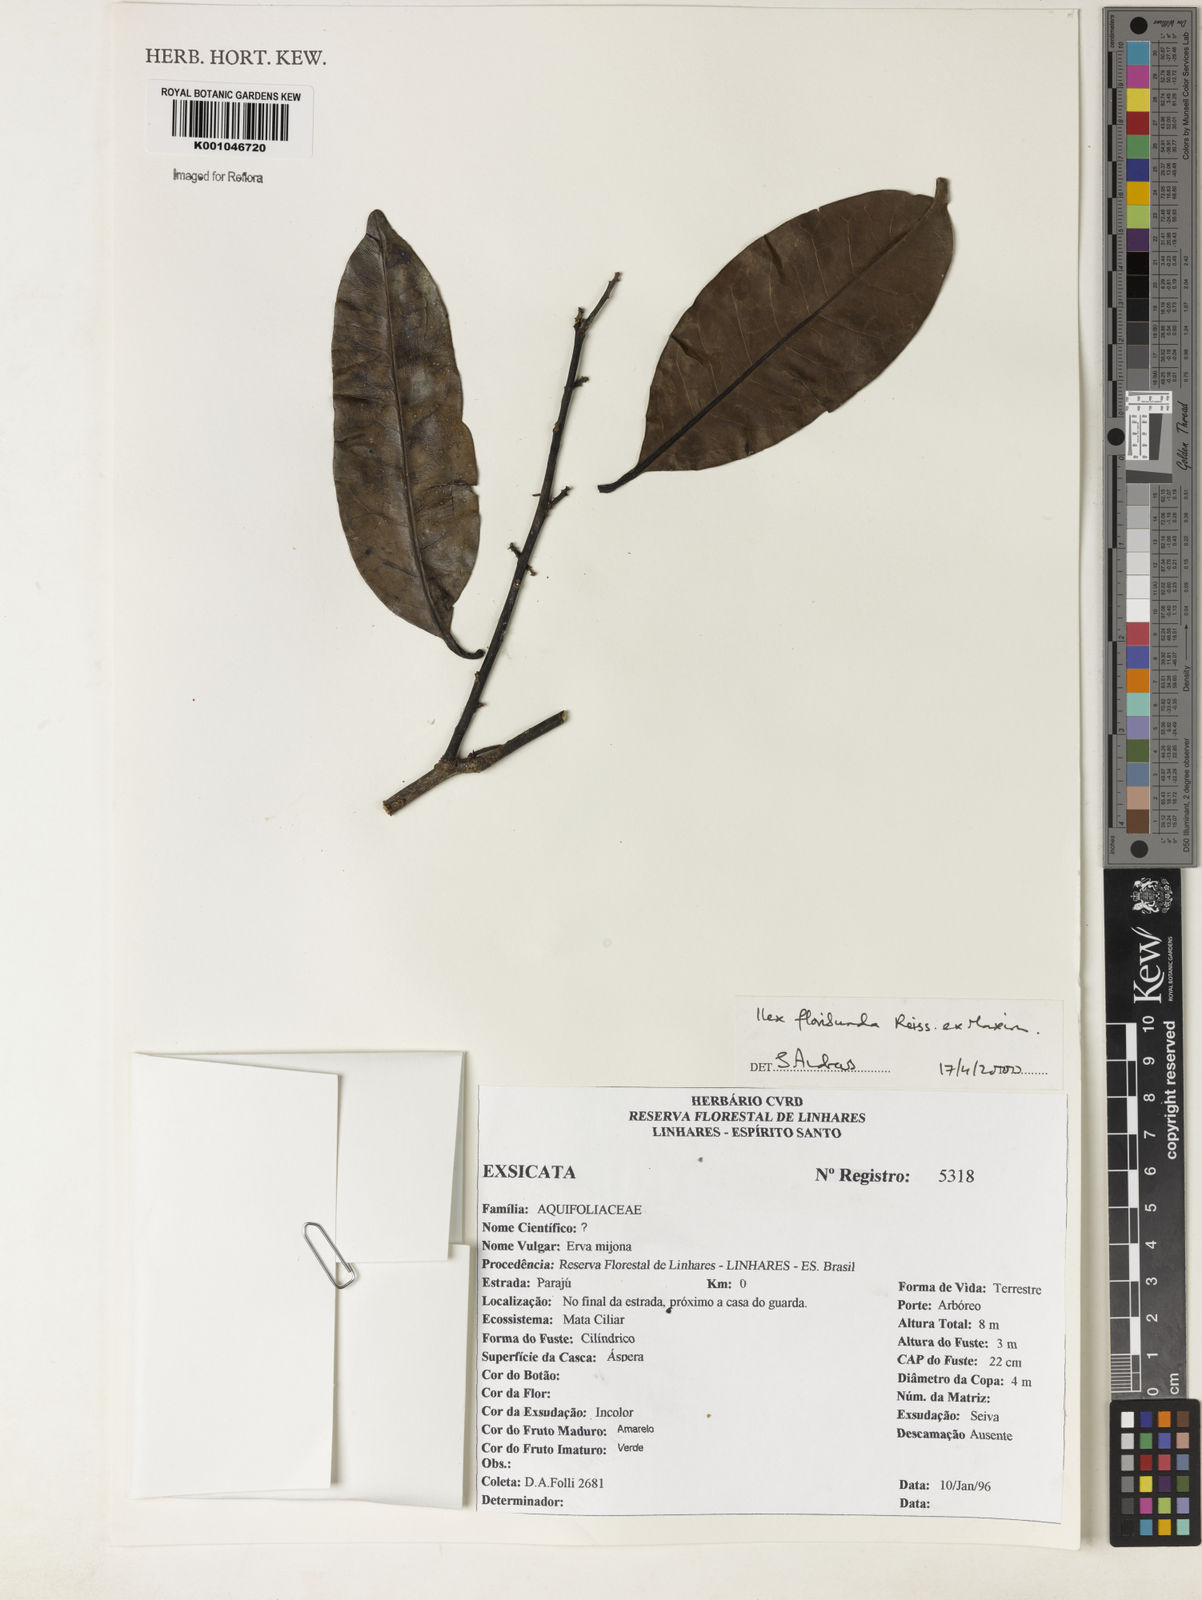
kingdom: Plantae
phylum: Tracheophyta
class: Magnoliopsida
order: Aquifoliales
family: Aquifoliaceae
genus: Ilex
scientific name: Ilex floribunda
